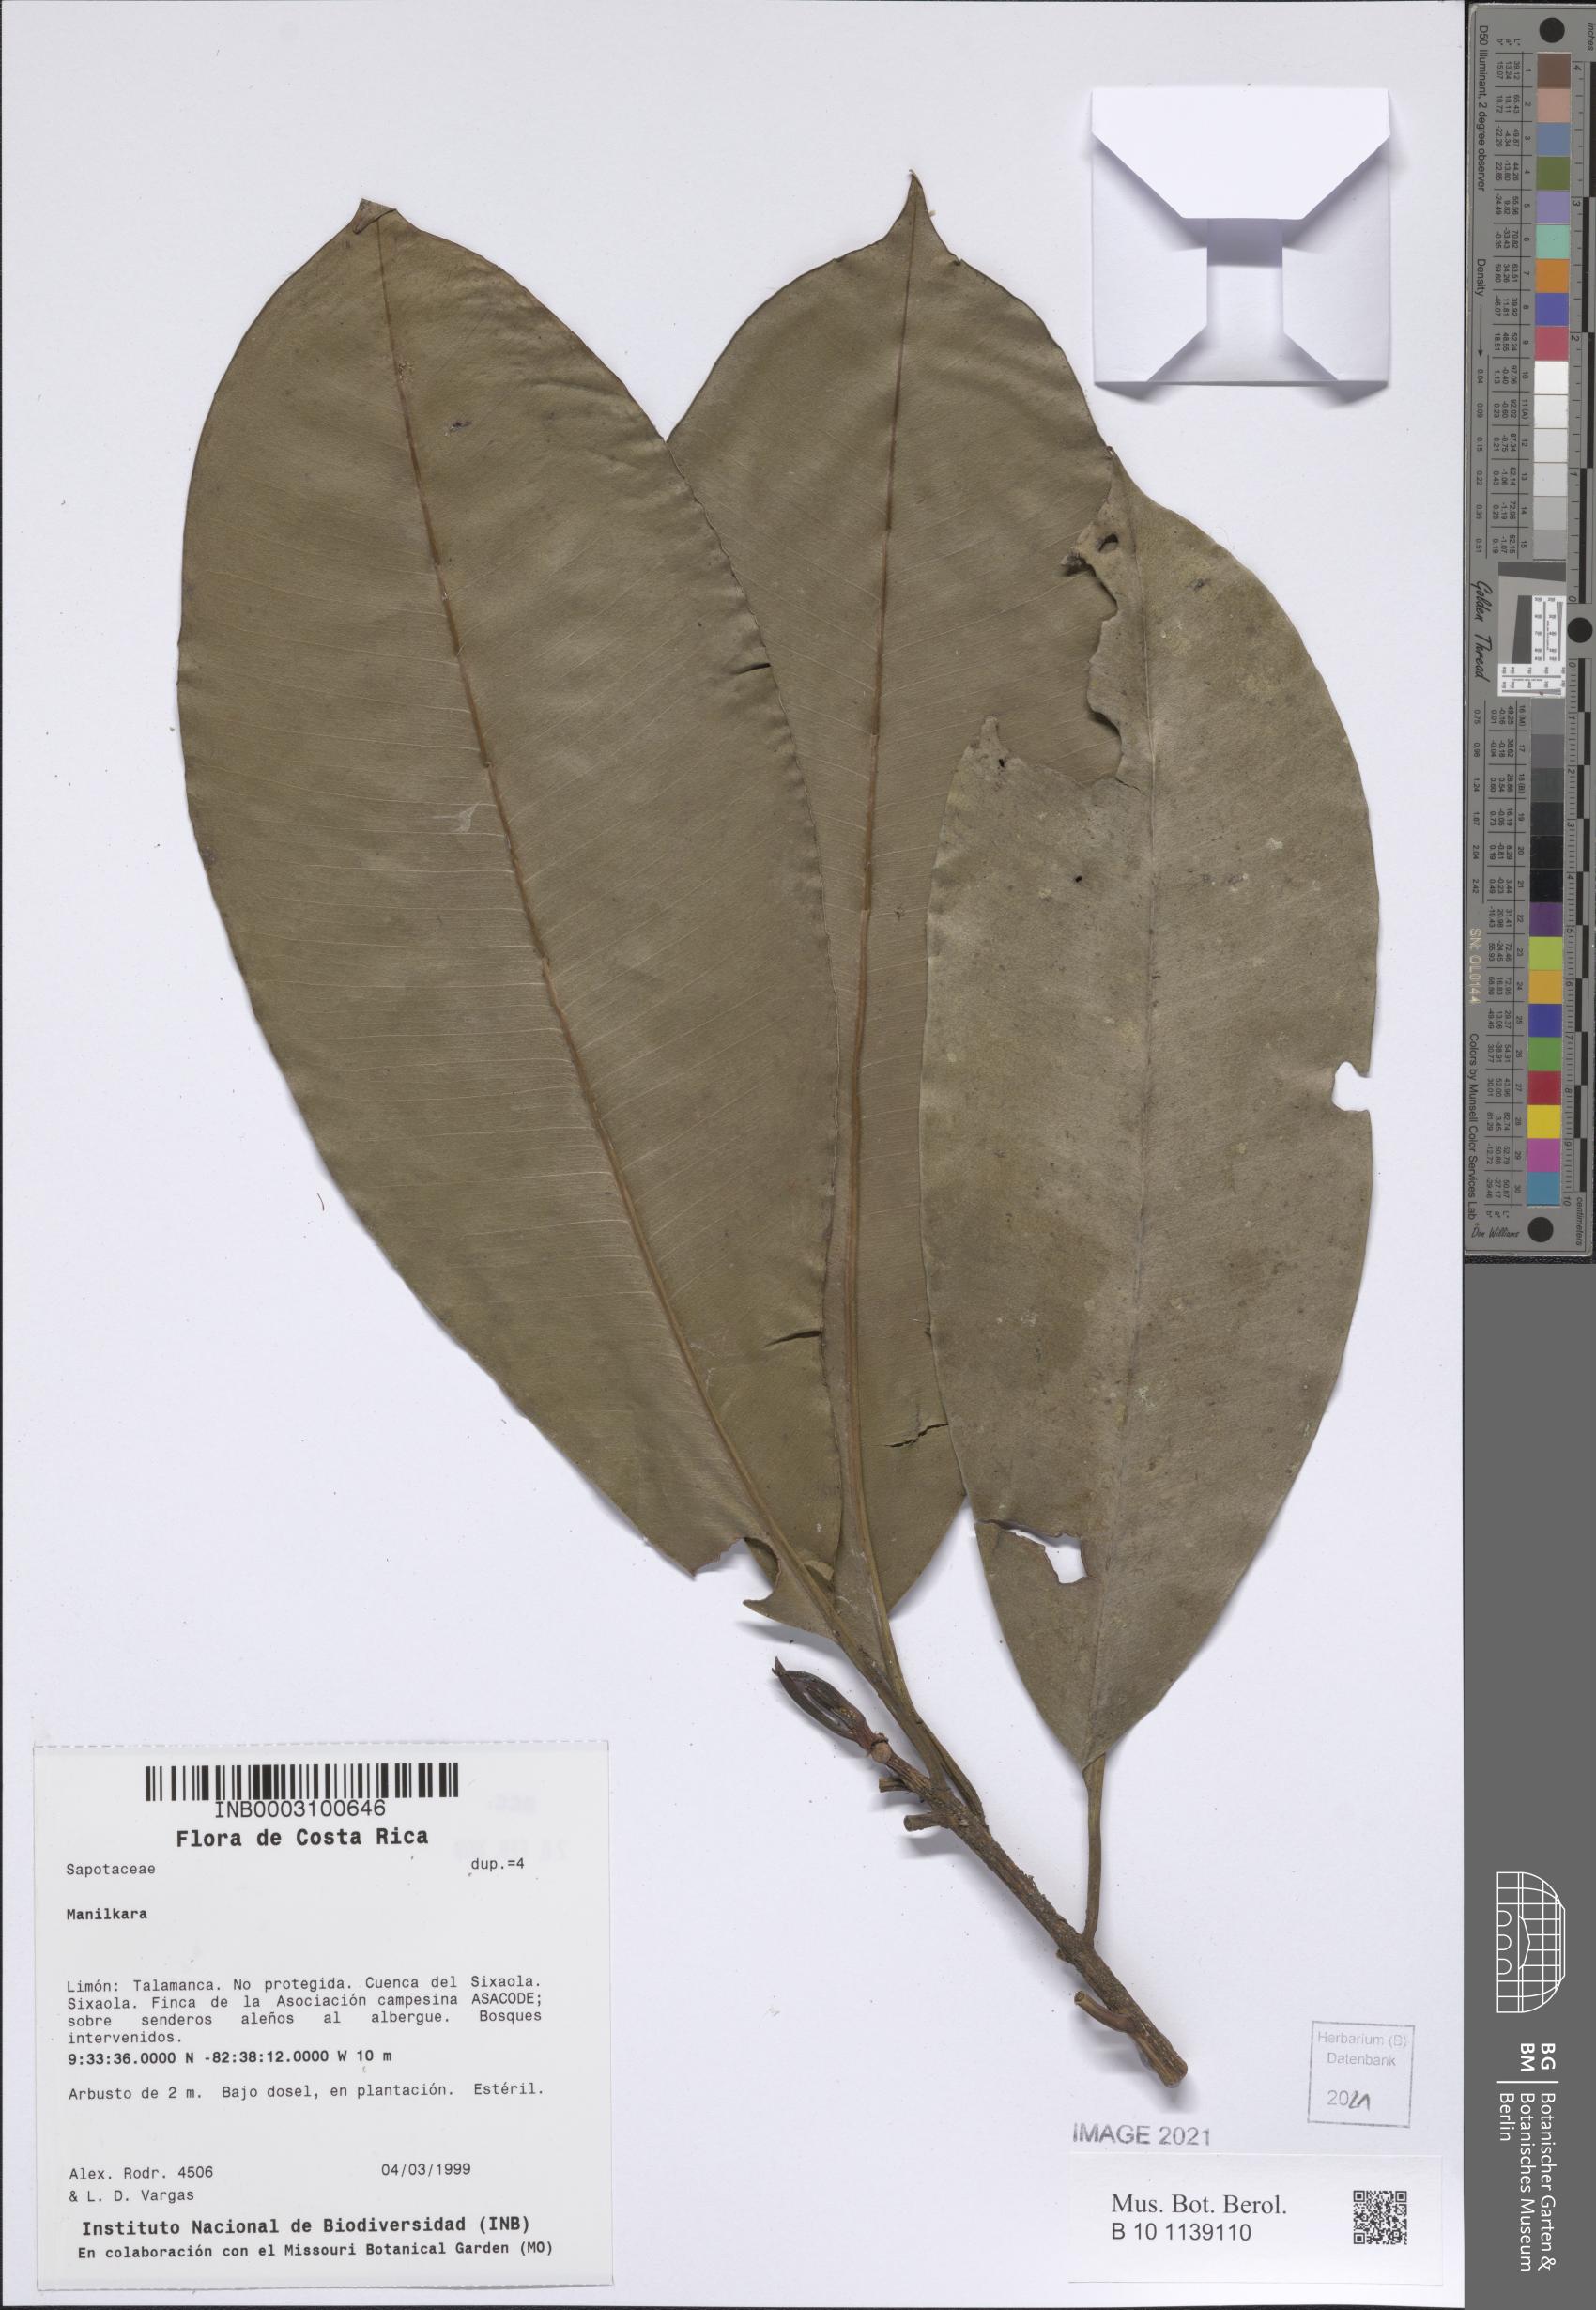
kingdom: Plantae
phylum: Tracheophyta
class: Magnoliopsida
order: Ericales
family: Sapotaceae
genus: Manilkara
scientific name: Manilkara
